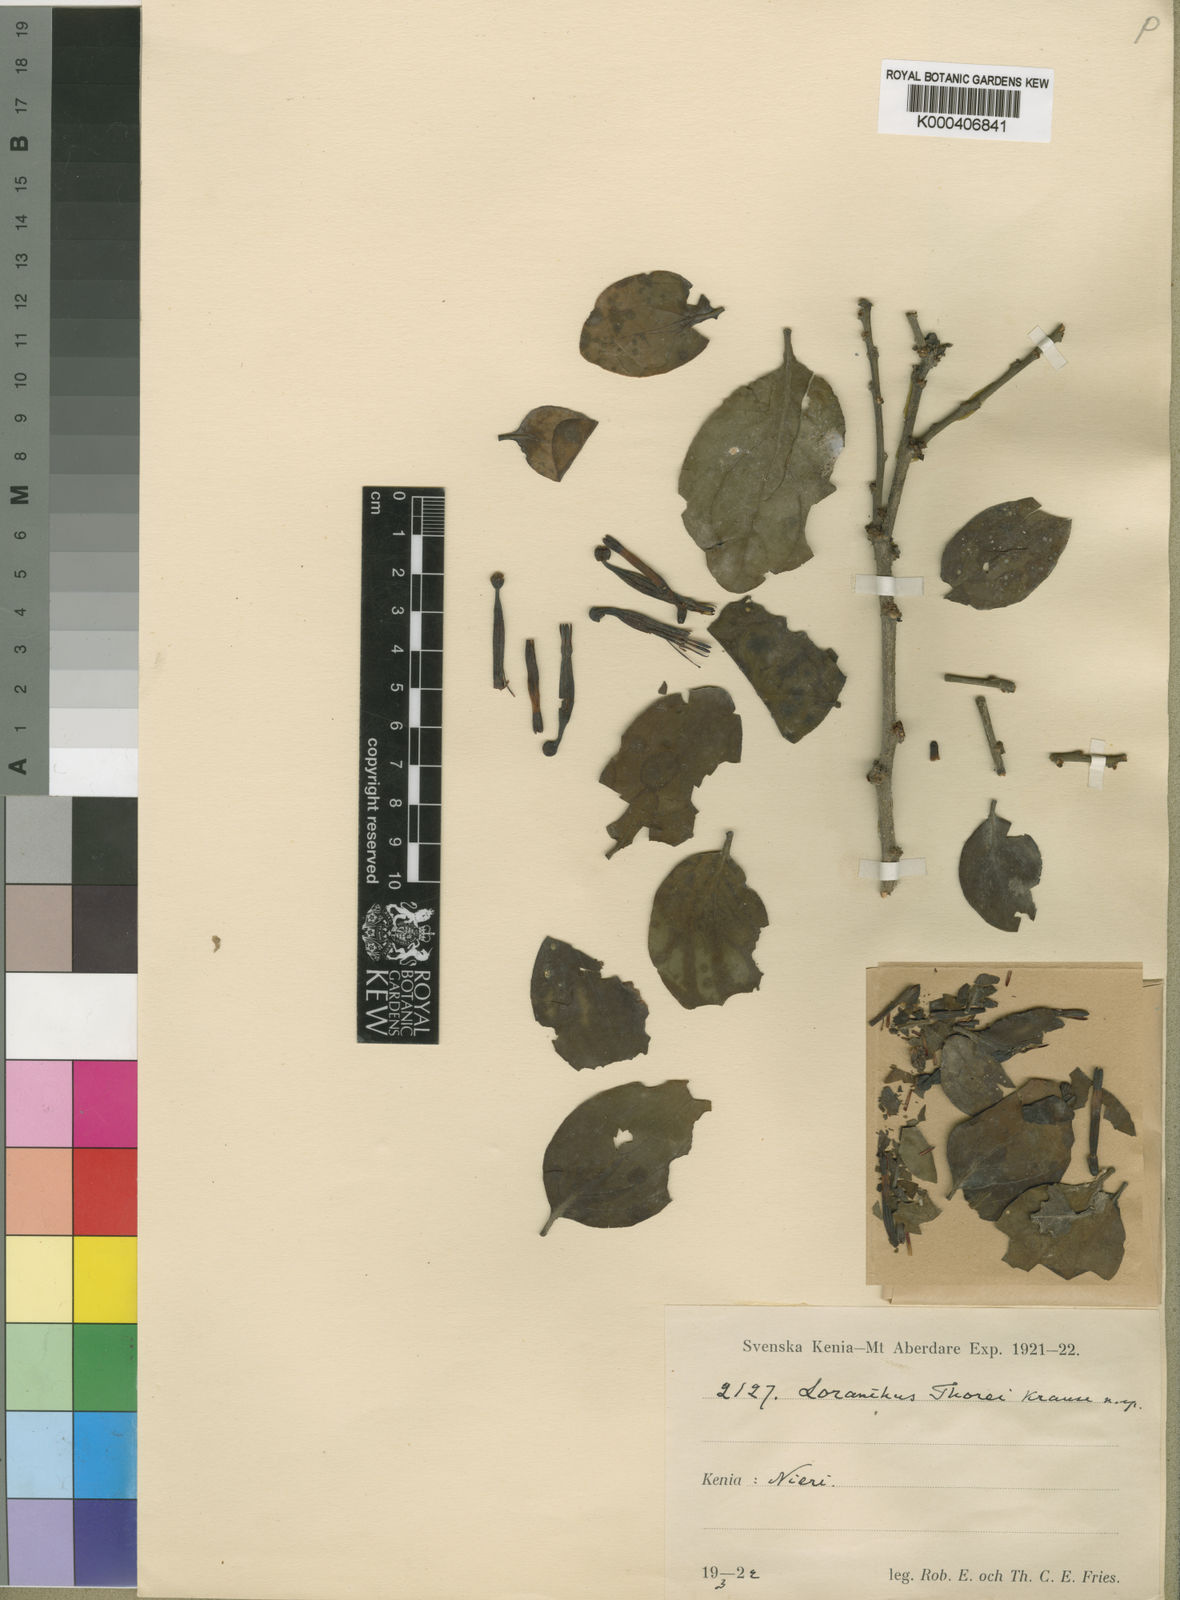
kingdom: Plantae
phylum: Tracheophyta
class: Magnoliopsida
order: Santalales
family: Loranthaceae
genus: Agelanthus
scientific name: Agelanthus sansibarensis
